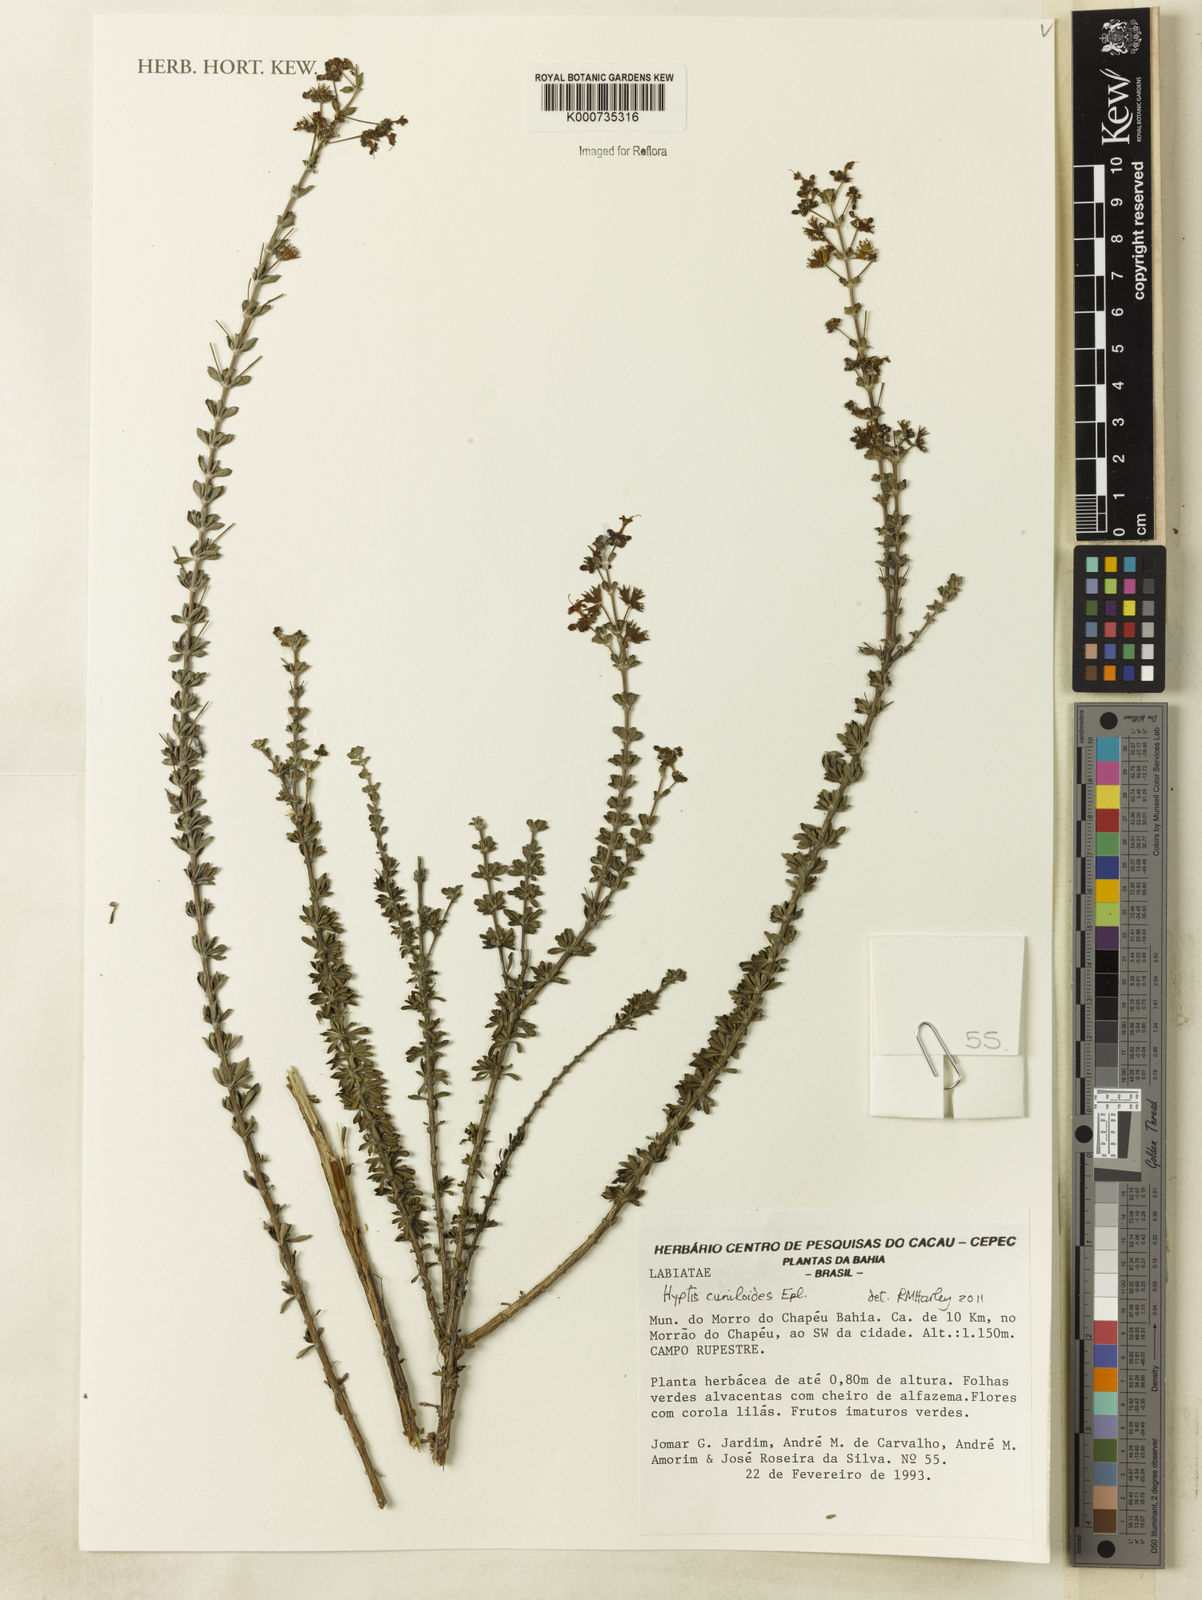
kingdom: Plantae
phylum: Tracheophyta
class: Magnoliopsida
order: Lamiales
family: Lamiaceae
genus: Eplingiella
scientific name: Eplingiella cuniloides
